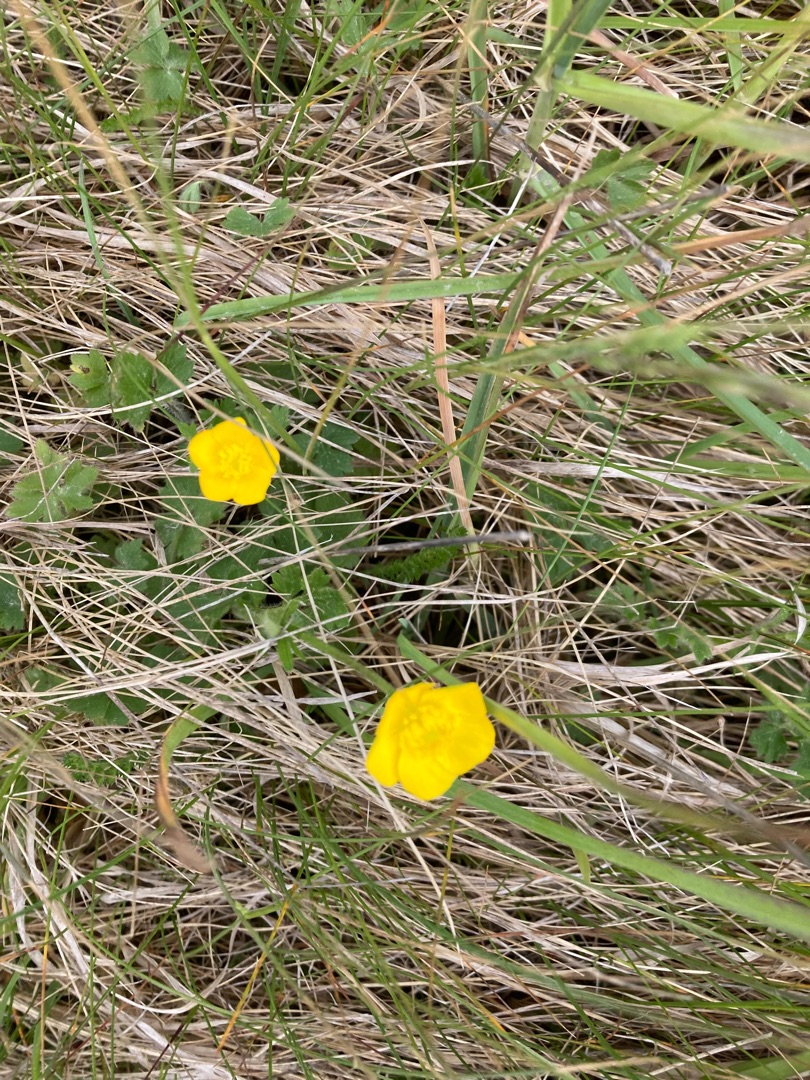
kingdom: Plantae
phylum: Tracheophyta
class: Magnoliopsida
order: Ranunculales
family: Ranunculaceae
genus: Ranunculus
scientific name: Ranunculus acris
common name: Bidende ranunkel
